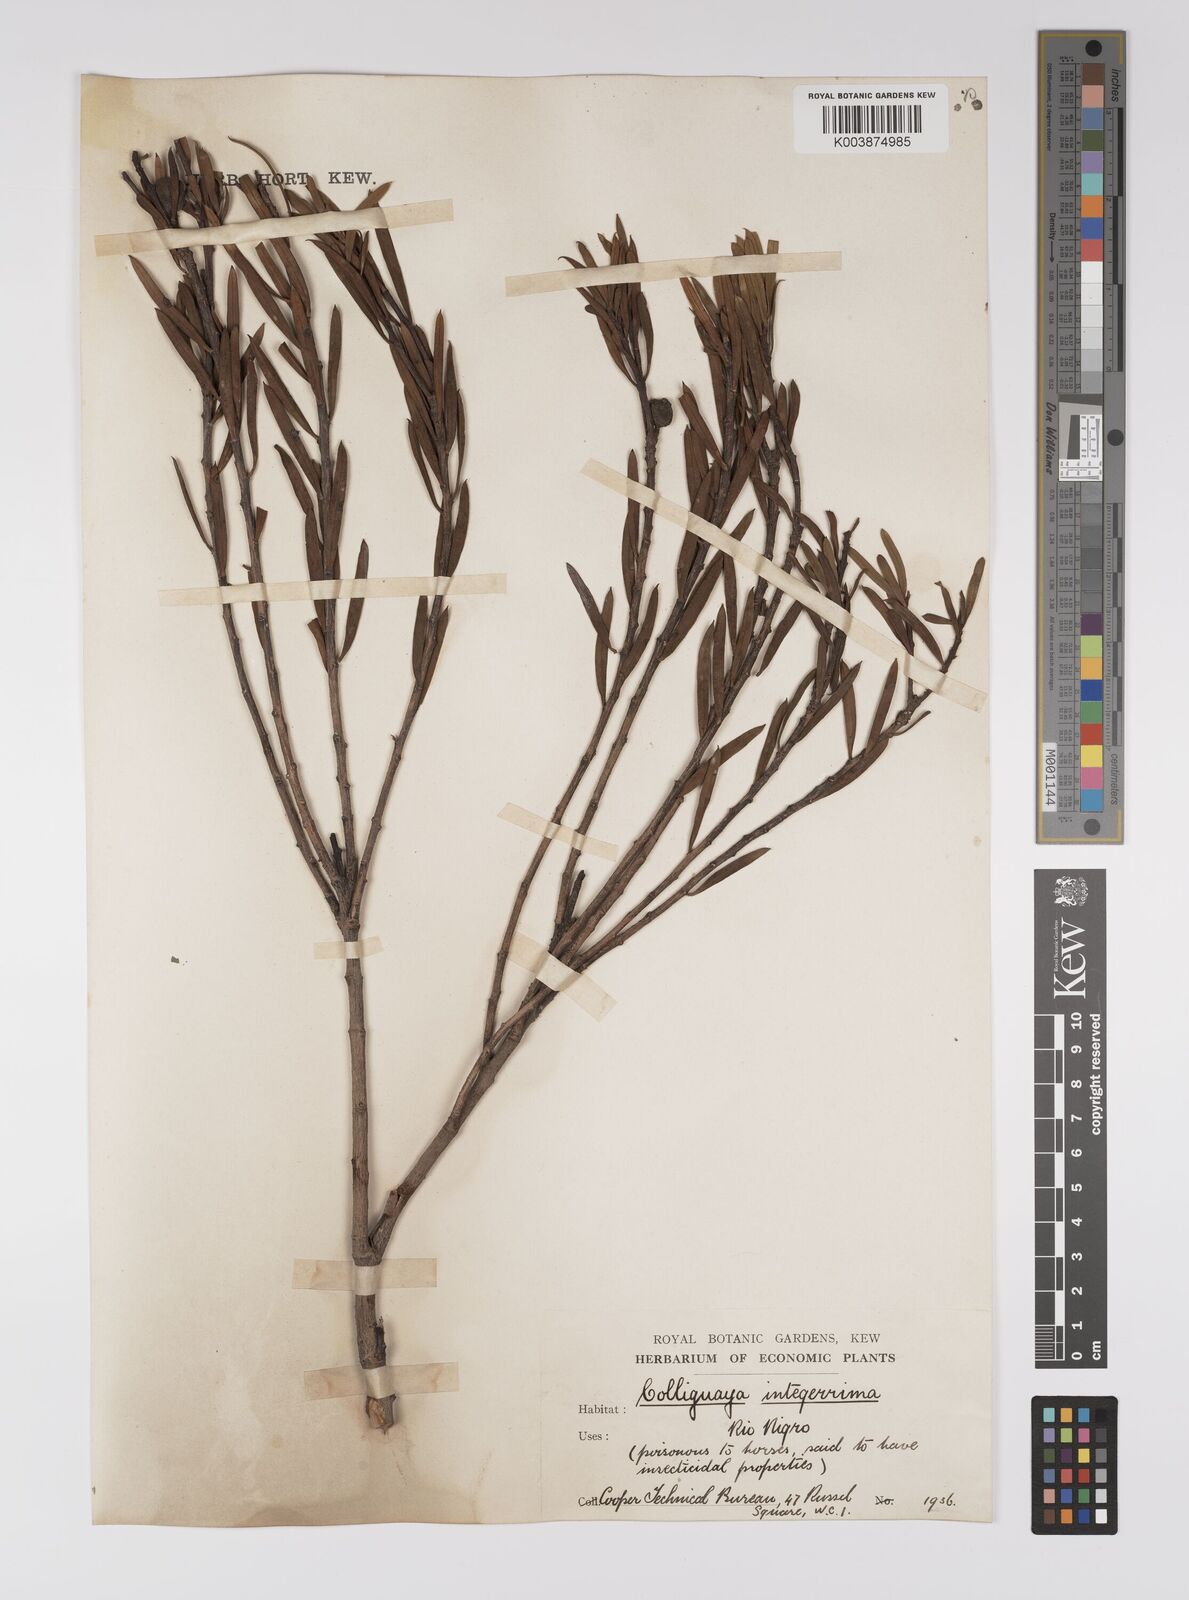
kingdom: Plantae
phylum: Tracheophyta
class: Magnoliopsida
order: Malpighiales
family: Euphorbiaceae
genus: Colliguaja
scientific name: Colliguaja integerrima
